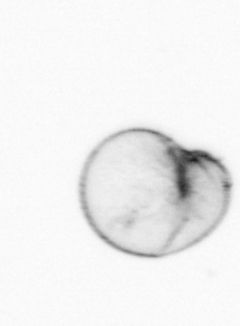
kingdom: Chromista
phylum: Myzozoa
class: Dinophyceae
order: Noctilucales
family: Noctilucaceae
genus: Noctiluca
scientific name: Noctiluca scintillans
